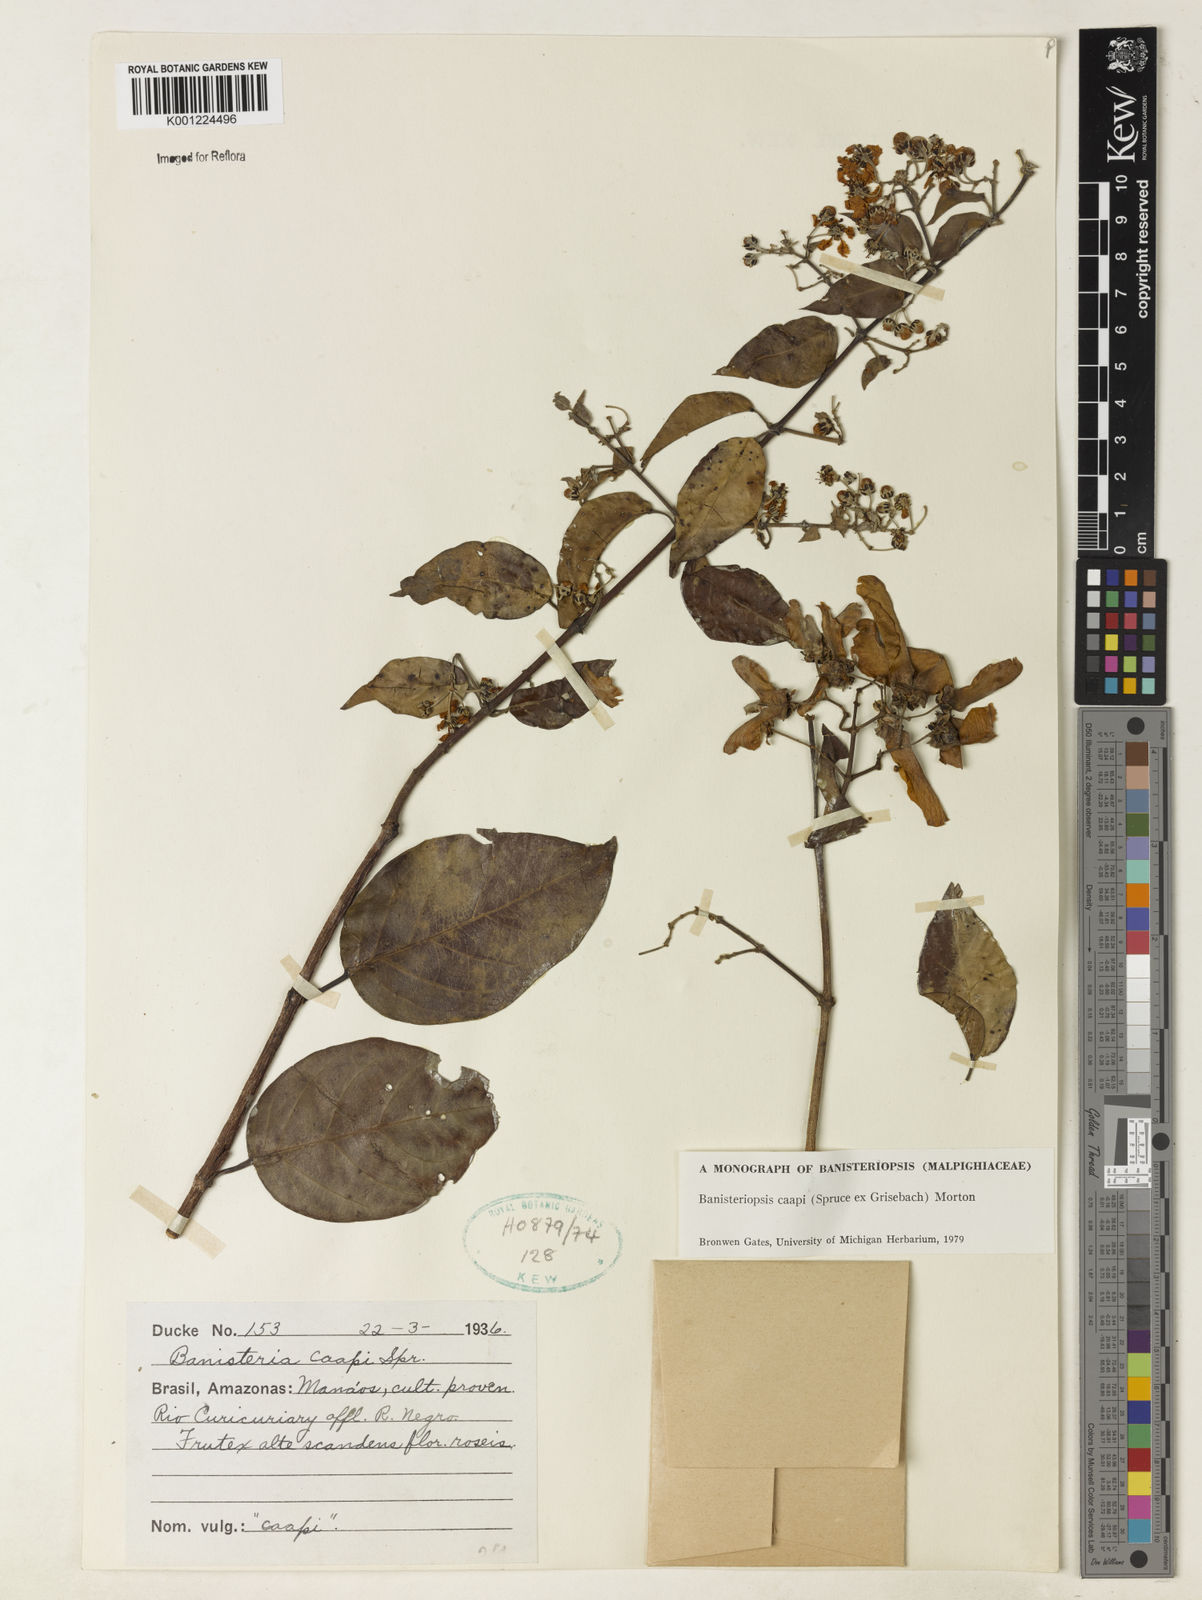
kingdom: Plantae
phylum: Tracheophyta
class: Magnoliopsida
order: Malpighiales
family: Malpighiaceae
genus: Banisteriopsis
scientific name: Banisteriopsis caapi
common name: Soulvine
